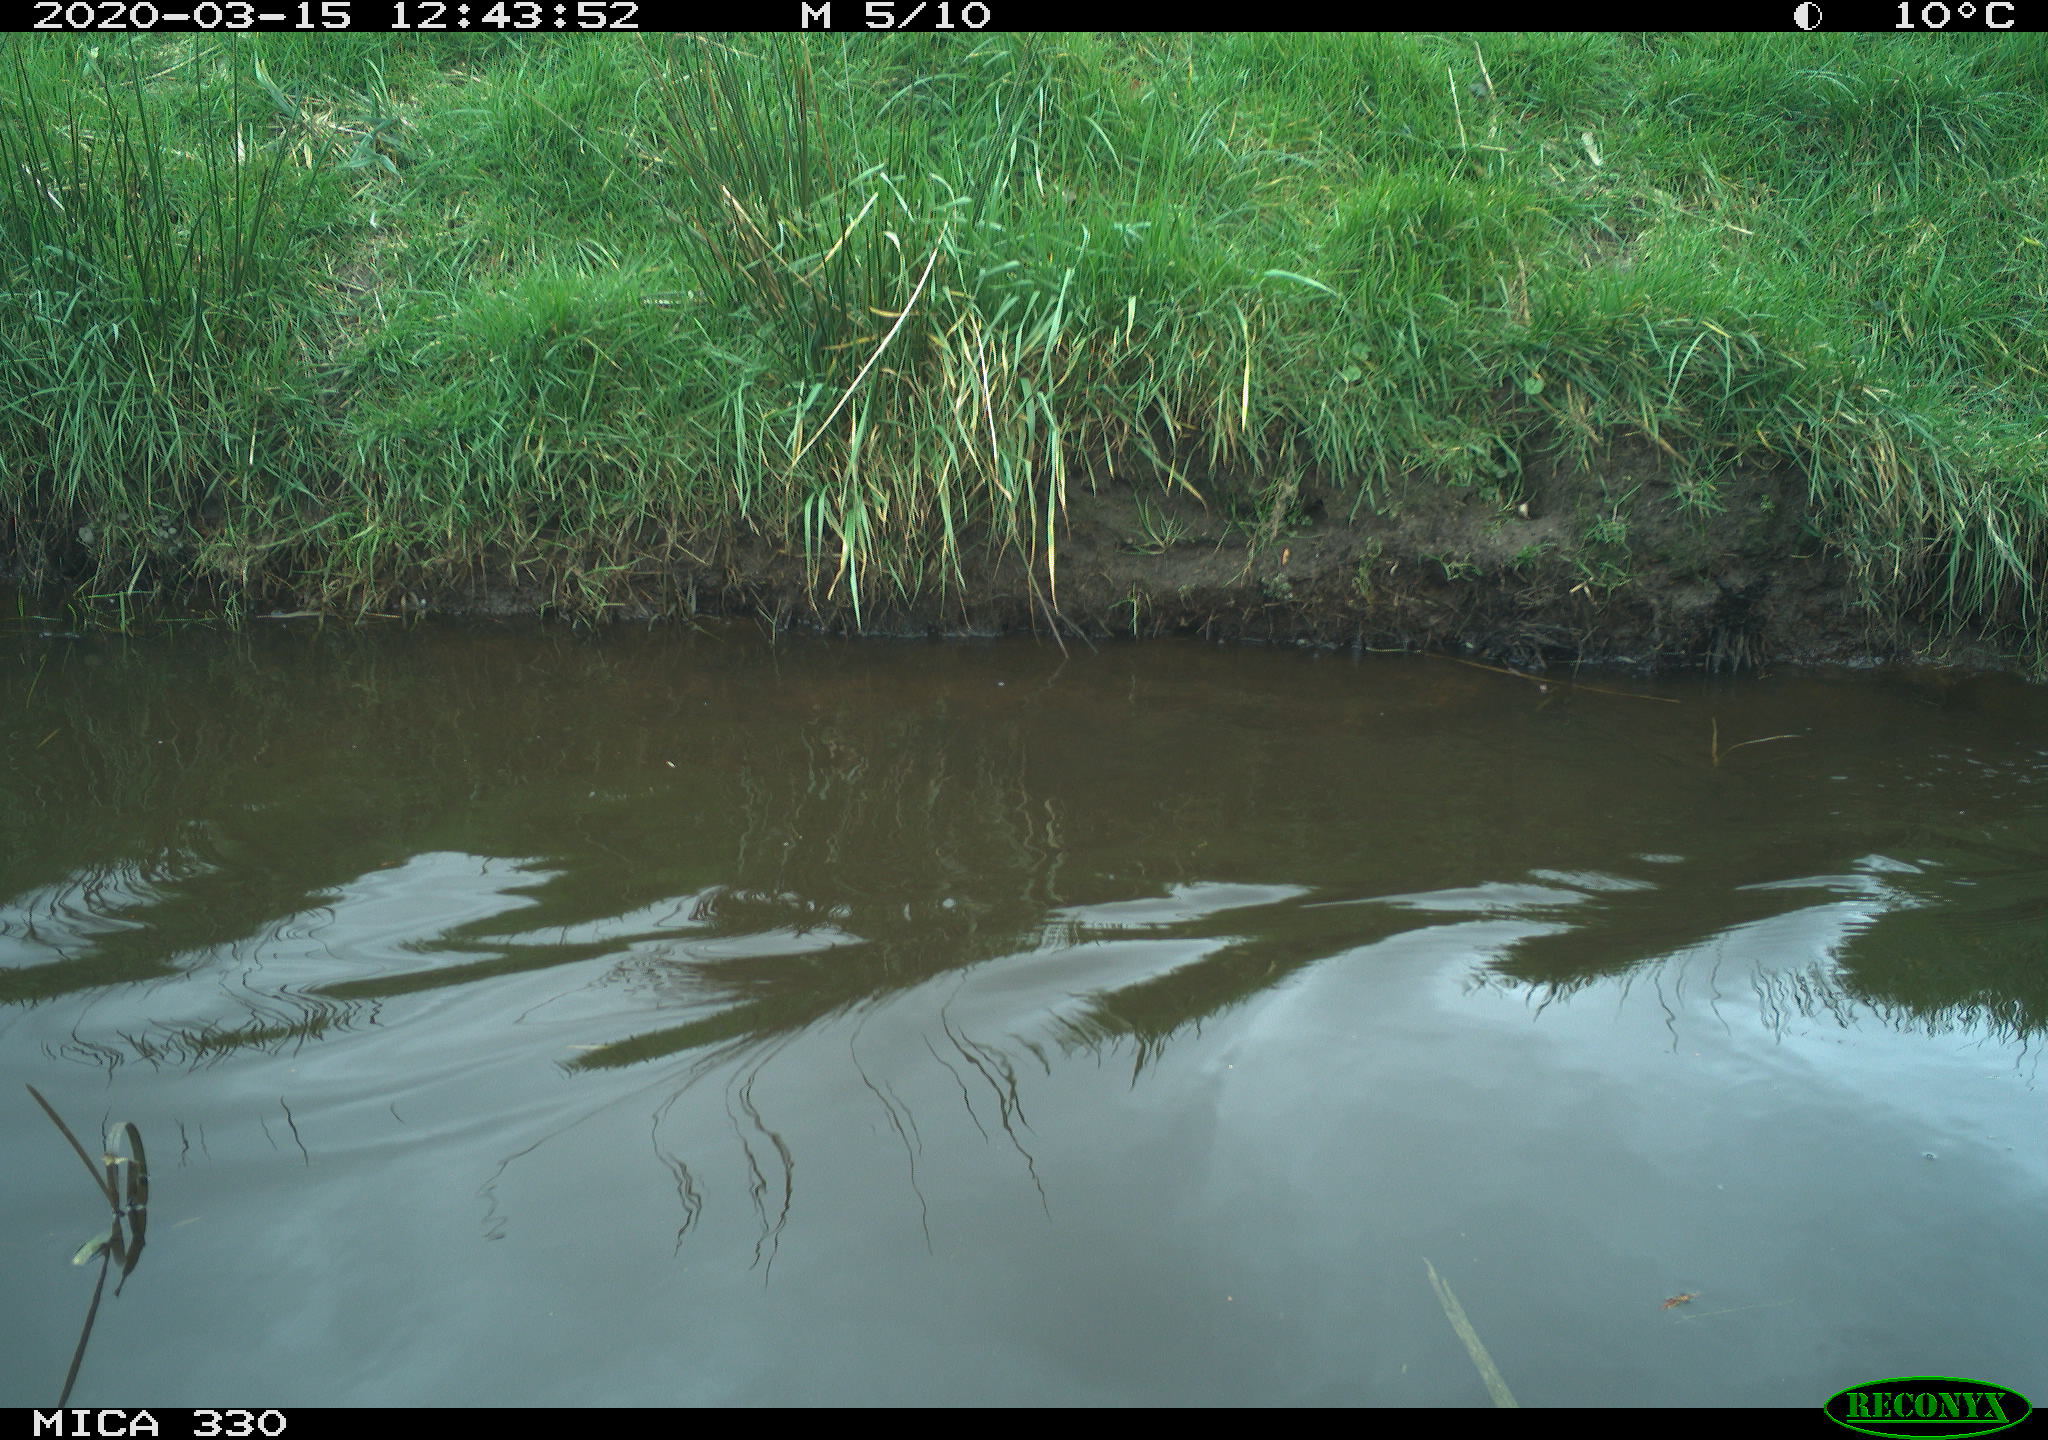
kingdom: Animalia
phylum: Chordata
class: Aves
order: Anseriformes
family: Anatidae
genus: Anas
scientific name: Anas platyrhynchos
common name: Mallard
